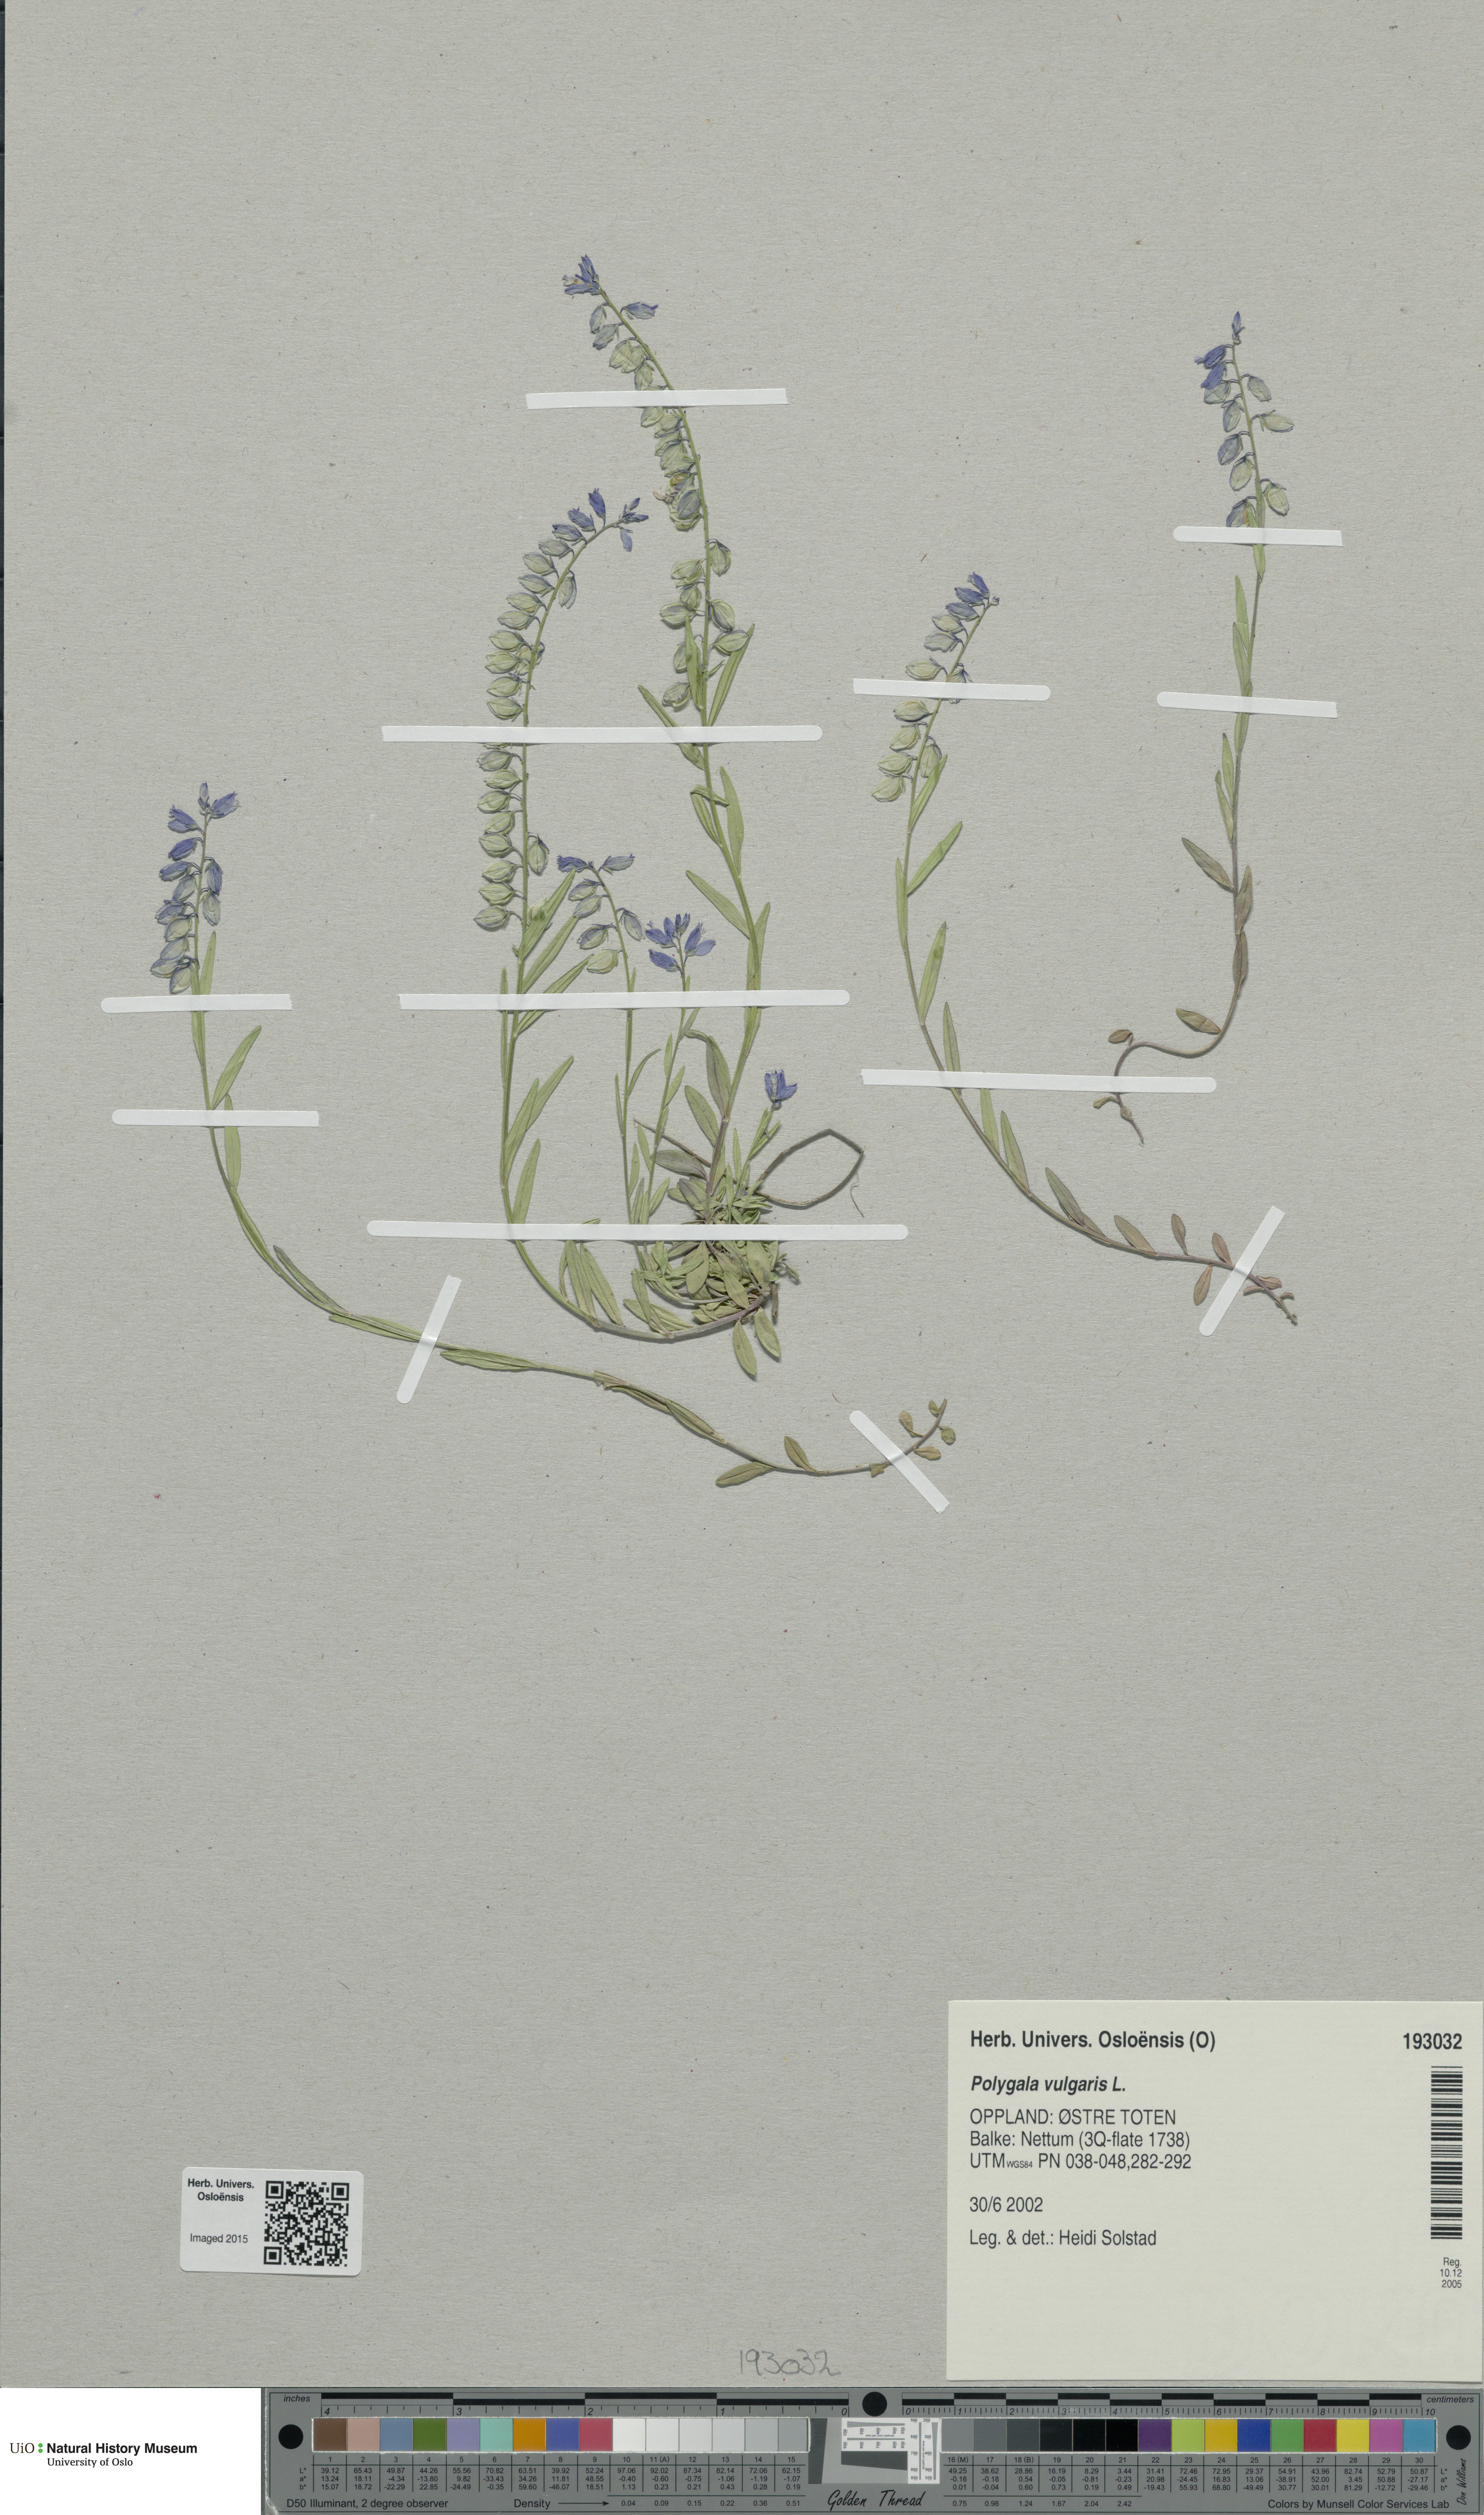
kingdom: Plantae
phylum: Tracheophyta
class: Magnoliopsida
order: Fabales
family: Polygalaceae
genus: Polygala
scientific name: Polygala vulgaris
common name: Common milkwort
